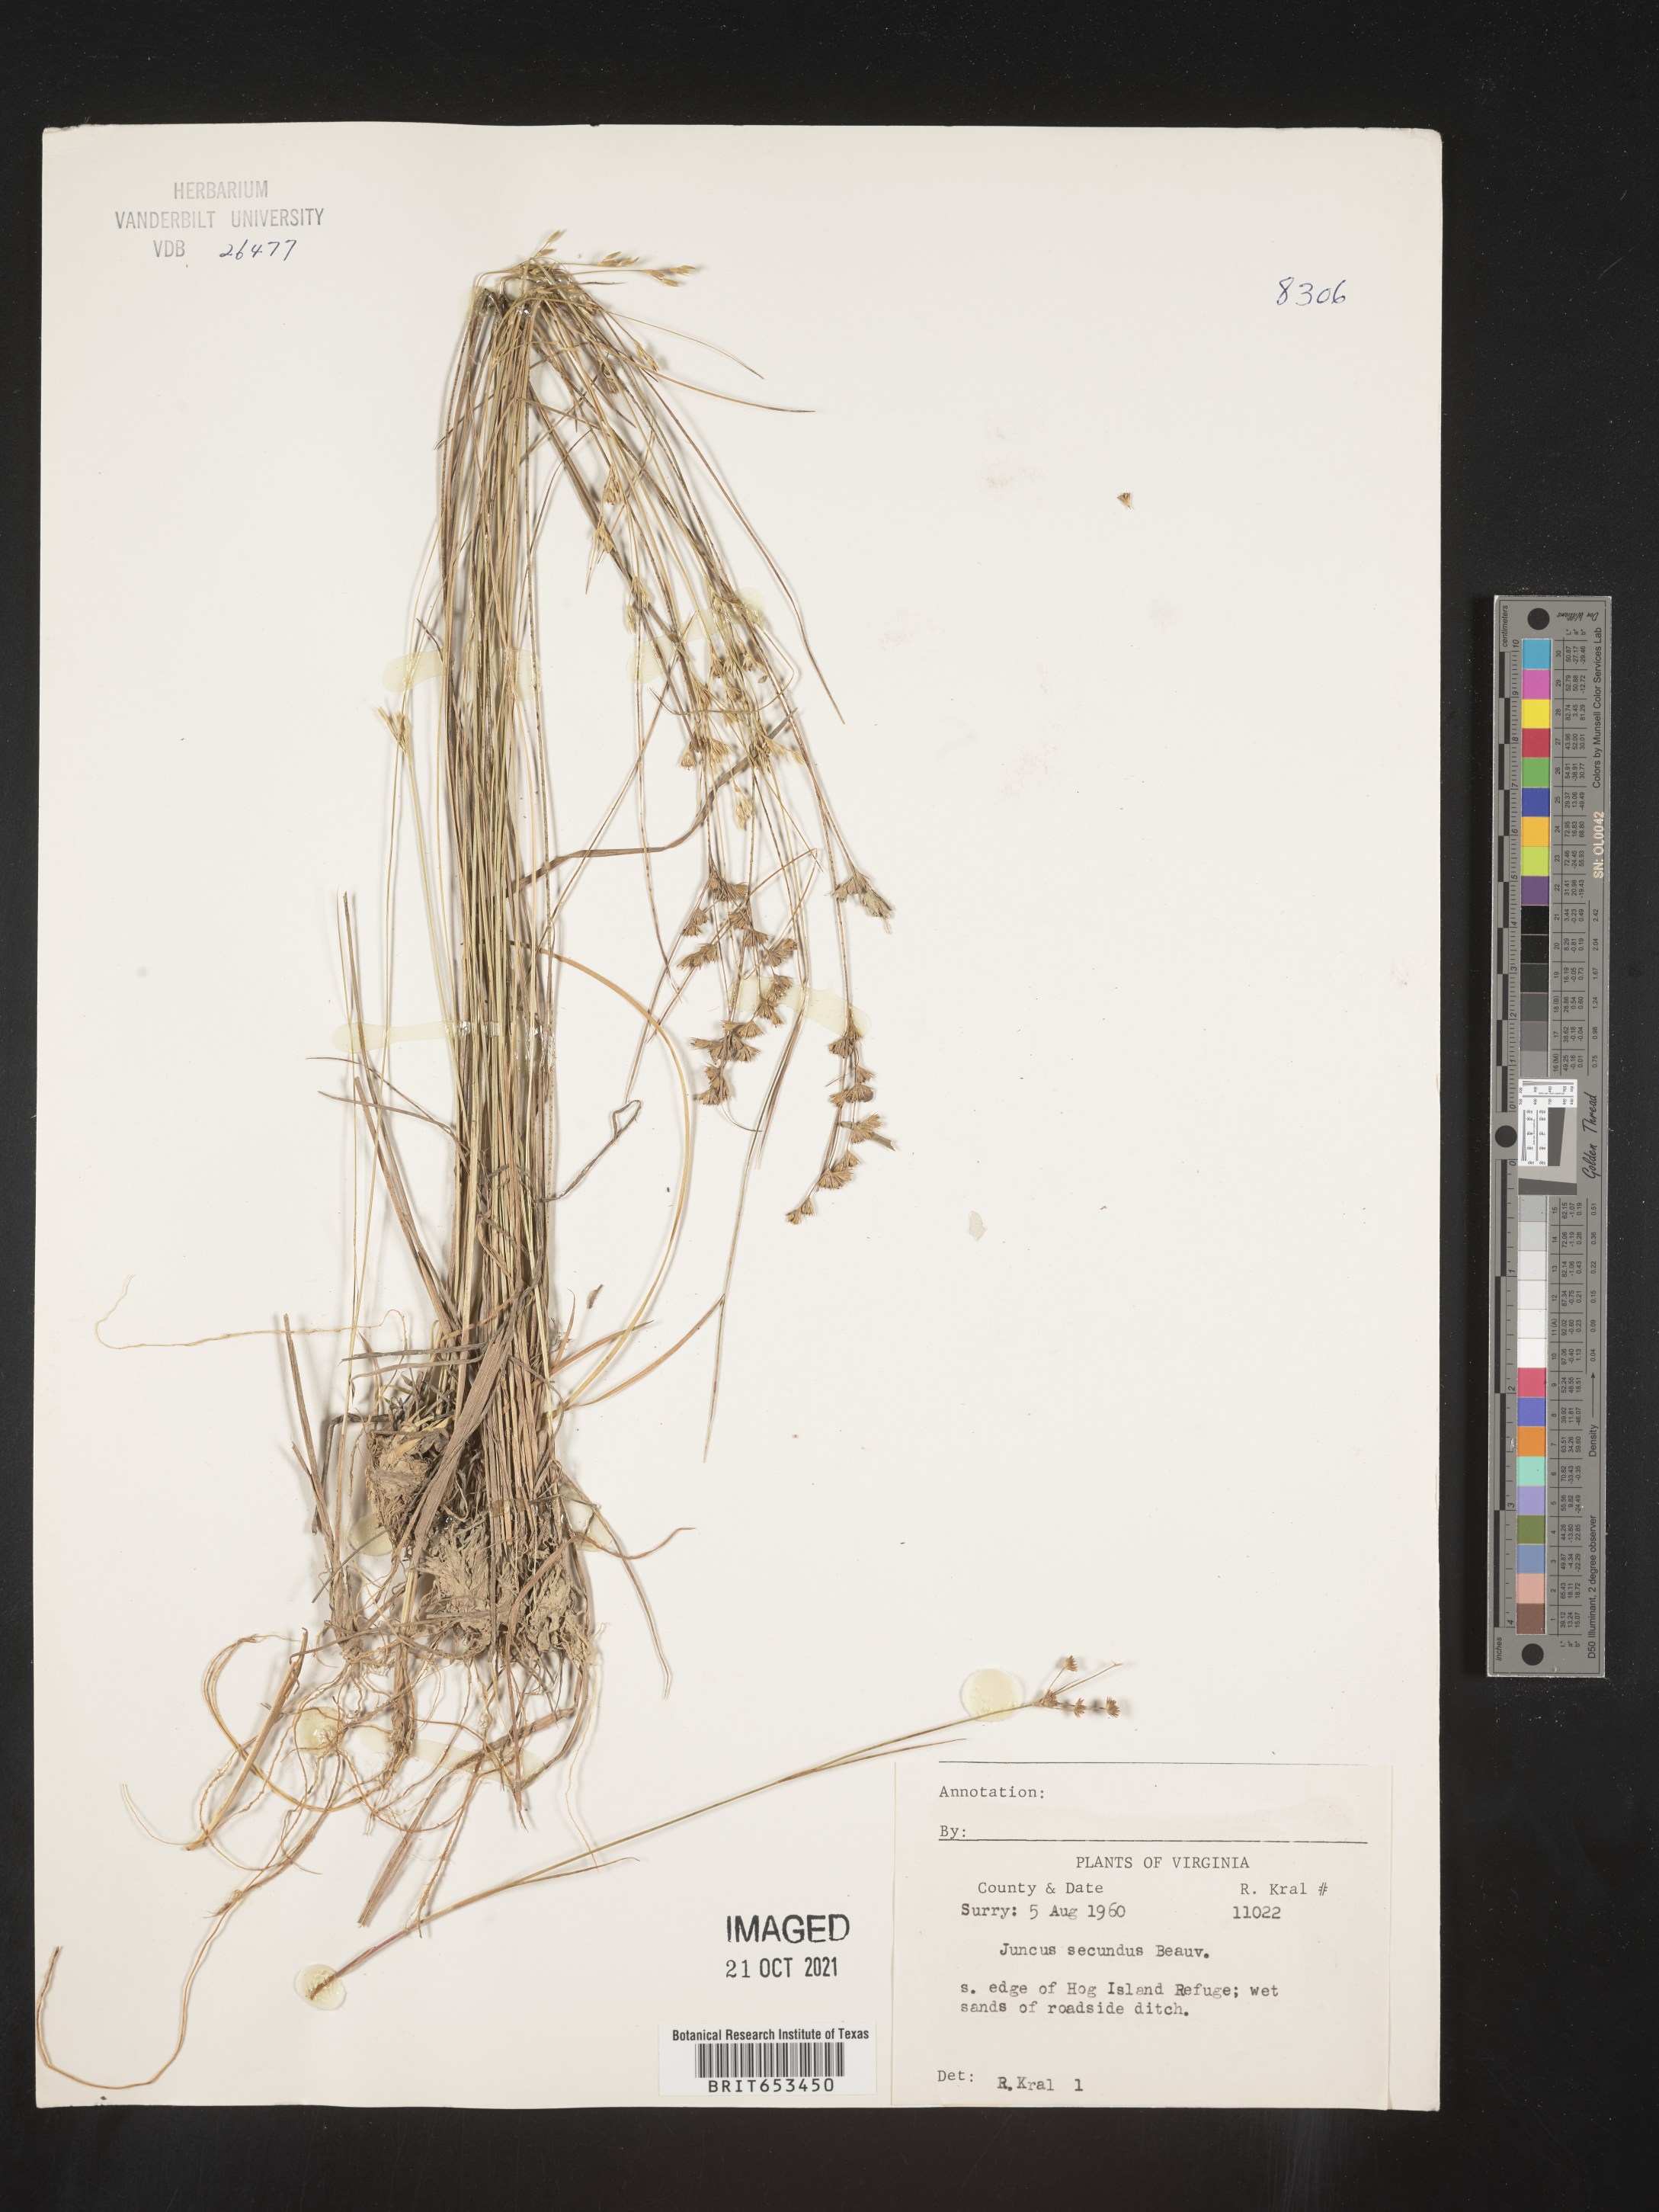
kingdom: Plantae
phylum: Tracheophyta
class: Liliopsida
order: Poales
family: Juncaceae
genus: Juncus
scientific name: Juncus secundus
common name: Lopsided rush
